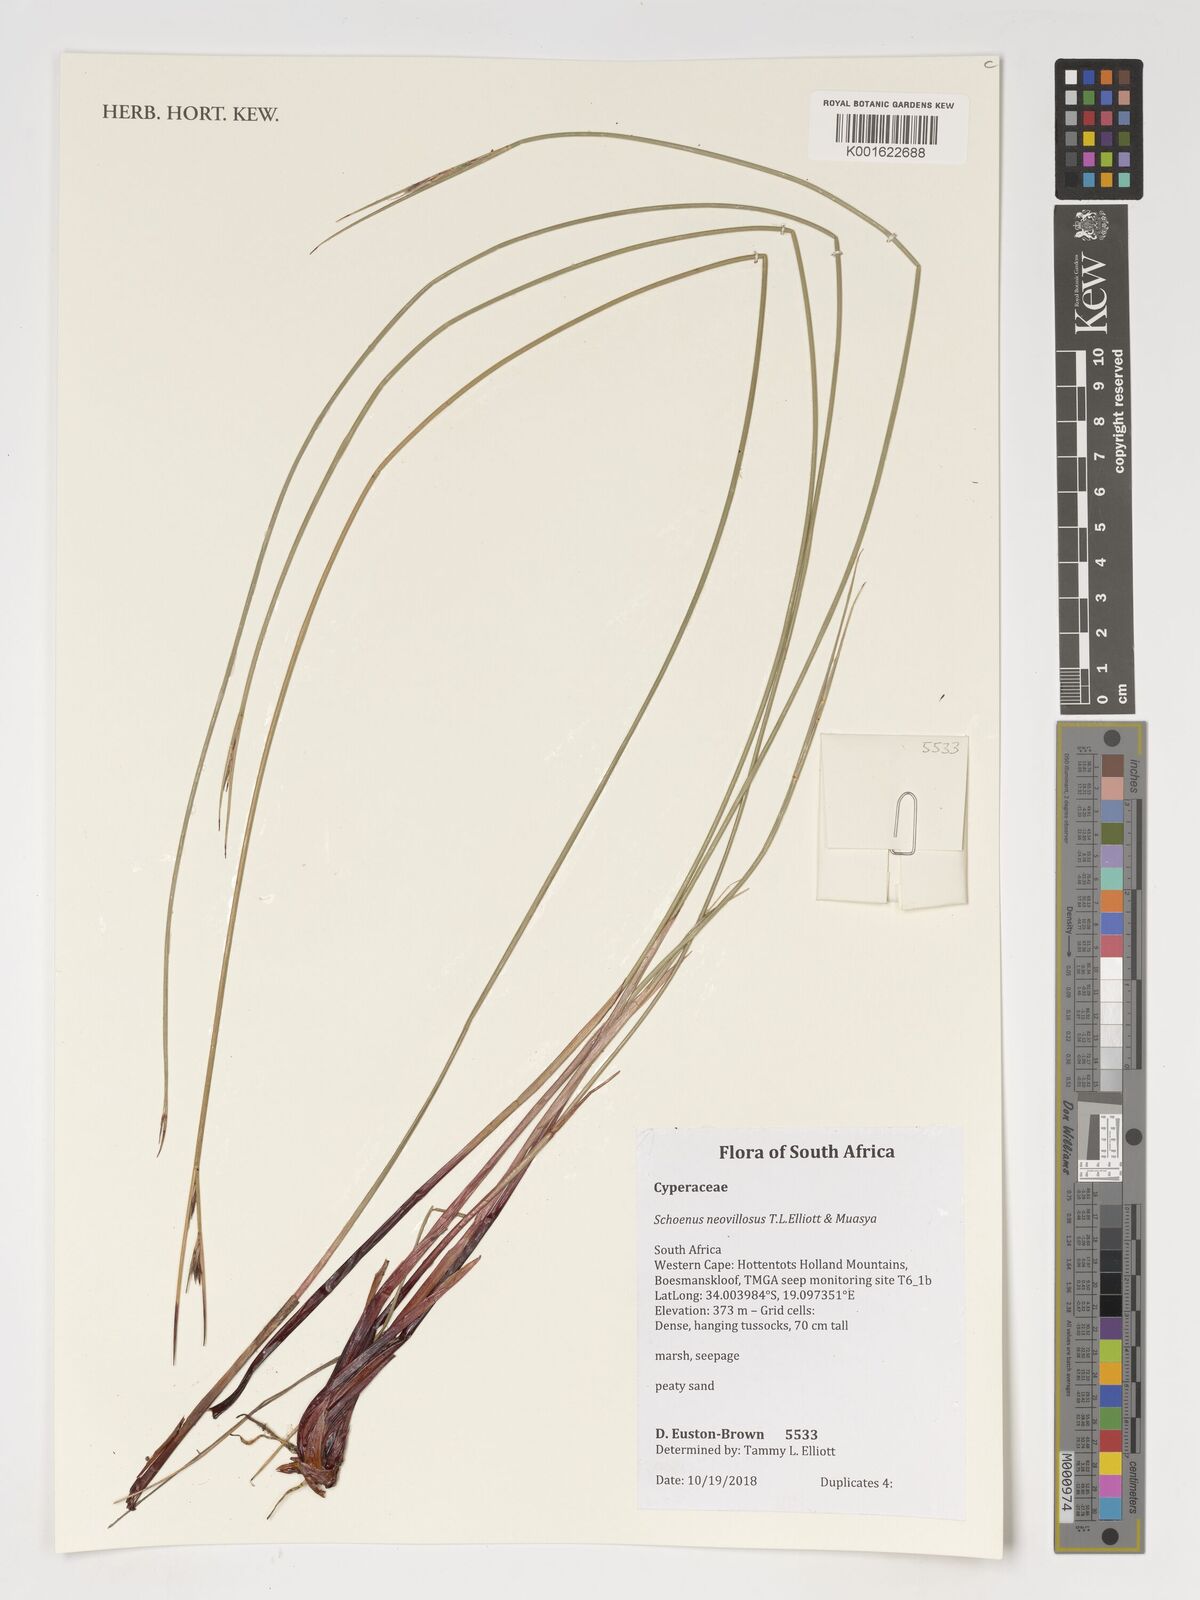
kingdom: Plantae
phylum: Tracheophyta
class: Liliopsida
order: Poales
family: Cyperaceae
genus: Schoenus
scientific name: Schoenus neovillosus
